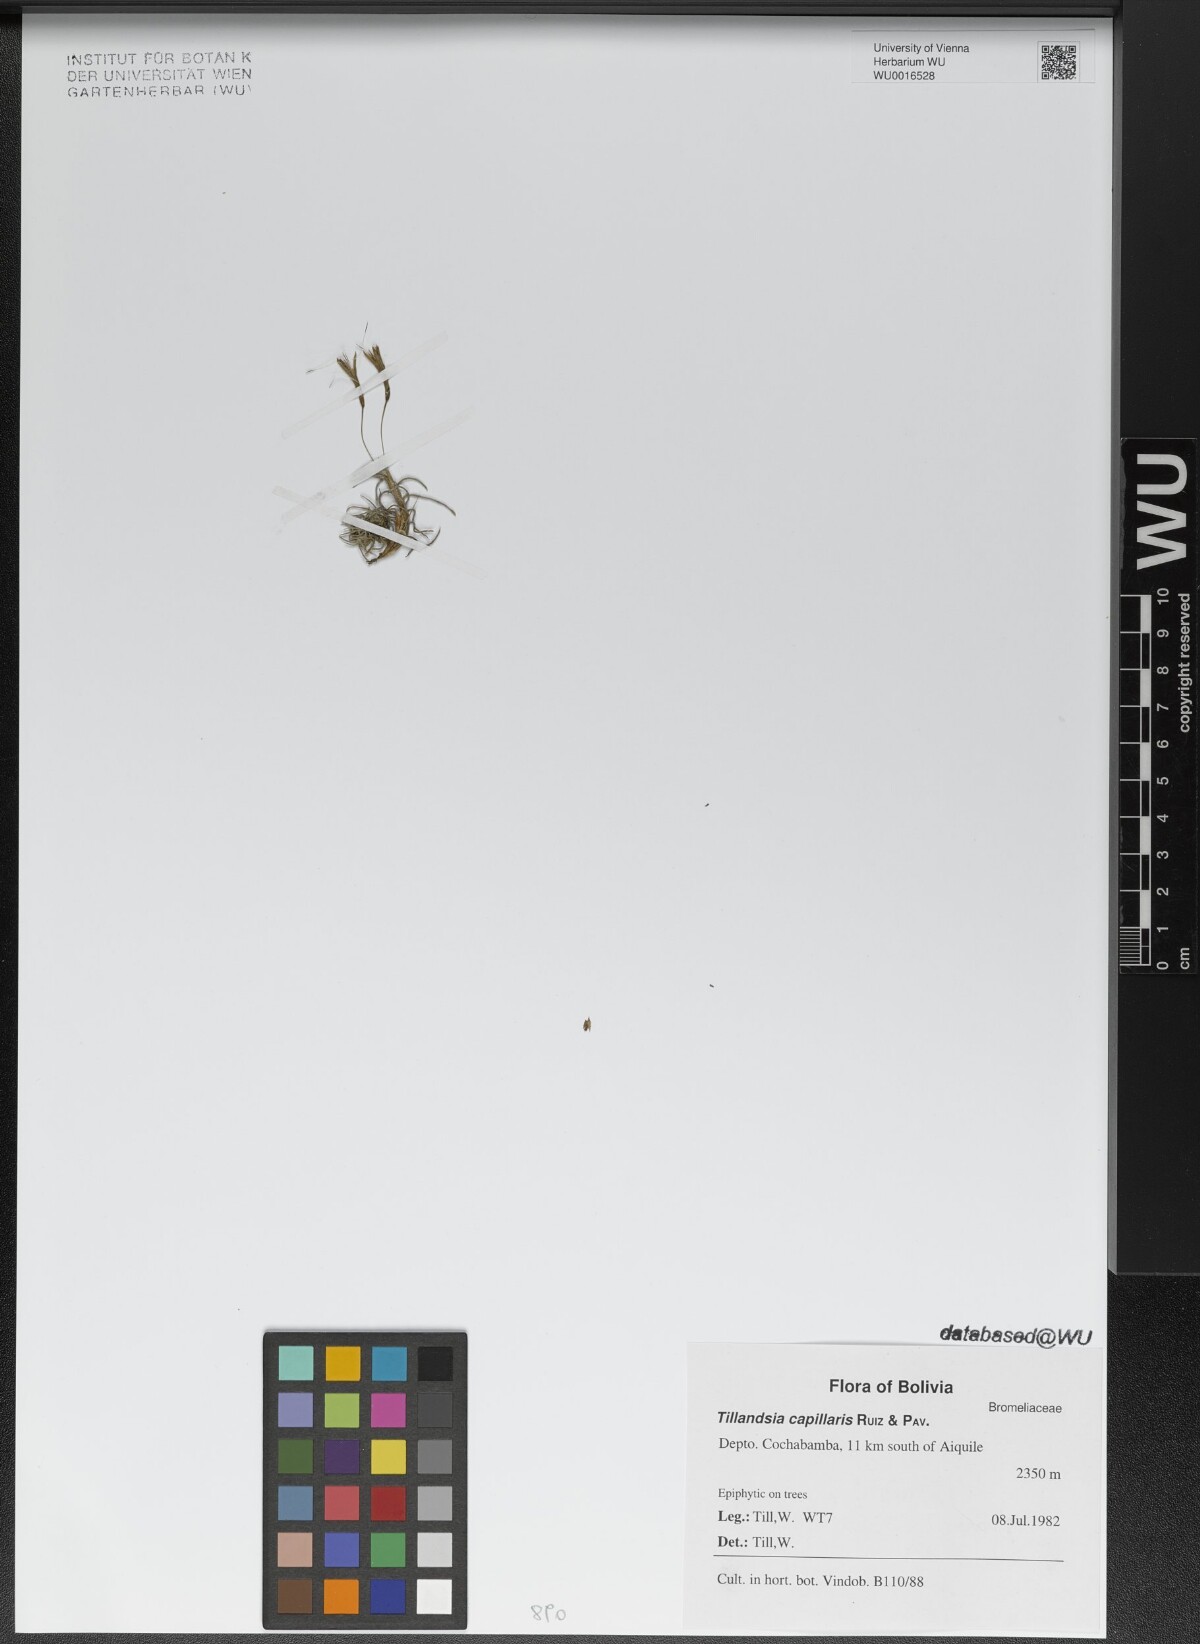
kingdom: Plantae
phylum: Tracheophyta
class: Liliopsida
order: Poales
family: Bromeliaceae
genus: Tillandsia
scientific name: Tillandsia capillaris
